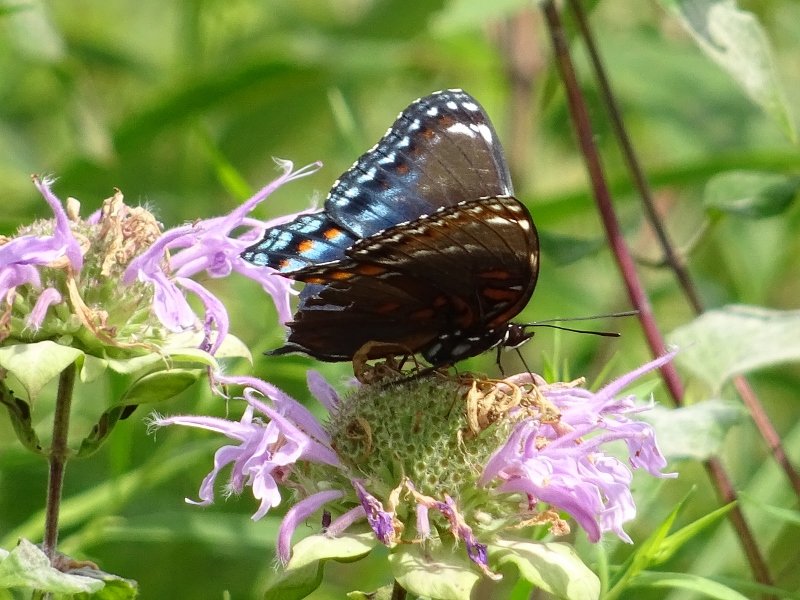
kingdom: Animalia
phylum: Arthropoda
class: Insecta
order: Lepidoptera
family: Nymphalidae
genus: Limenitis
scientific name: Limenitis
